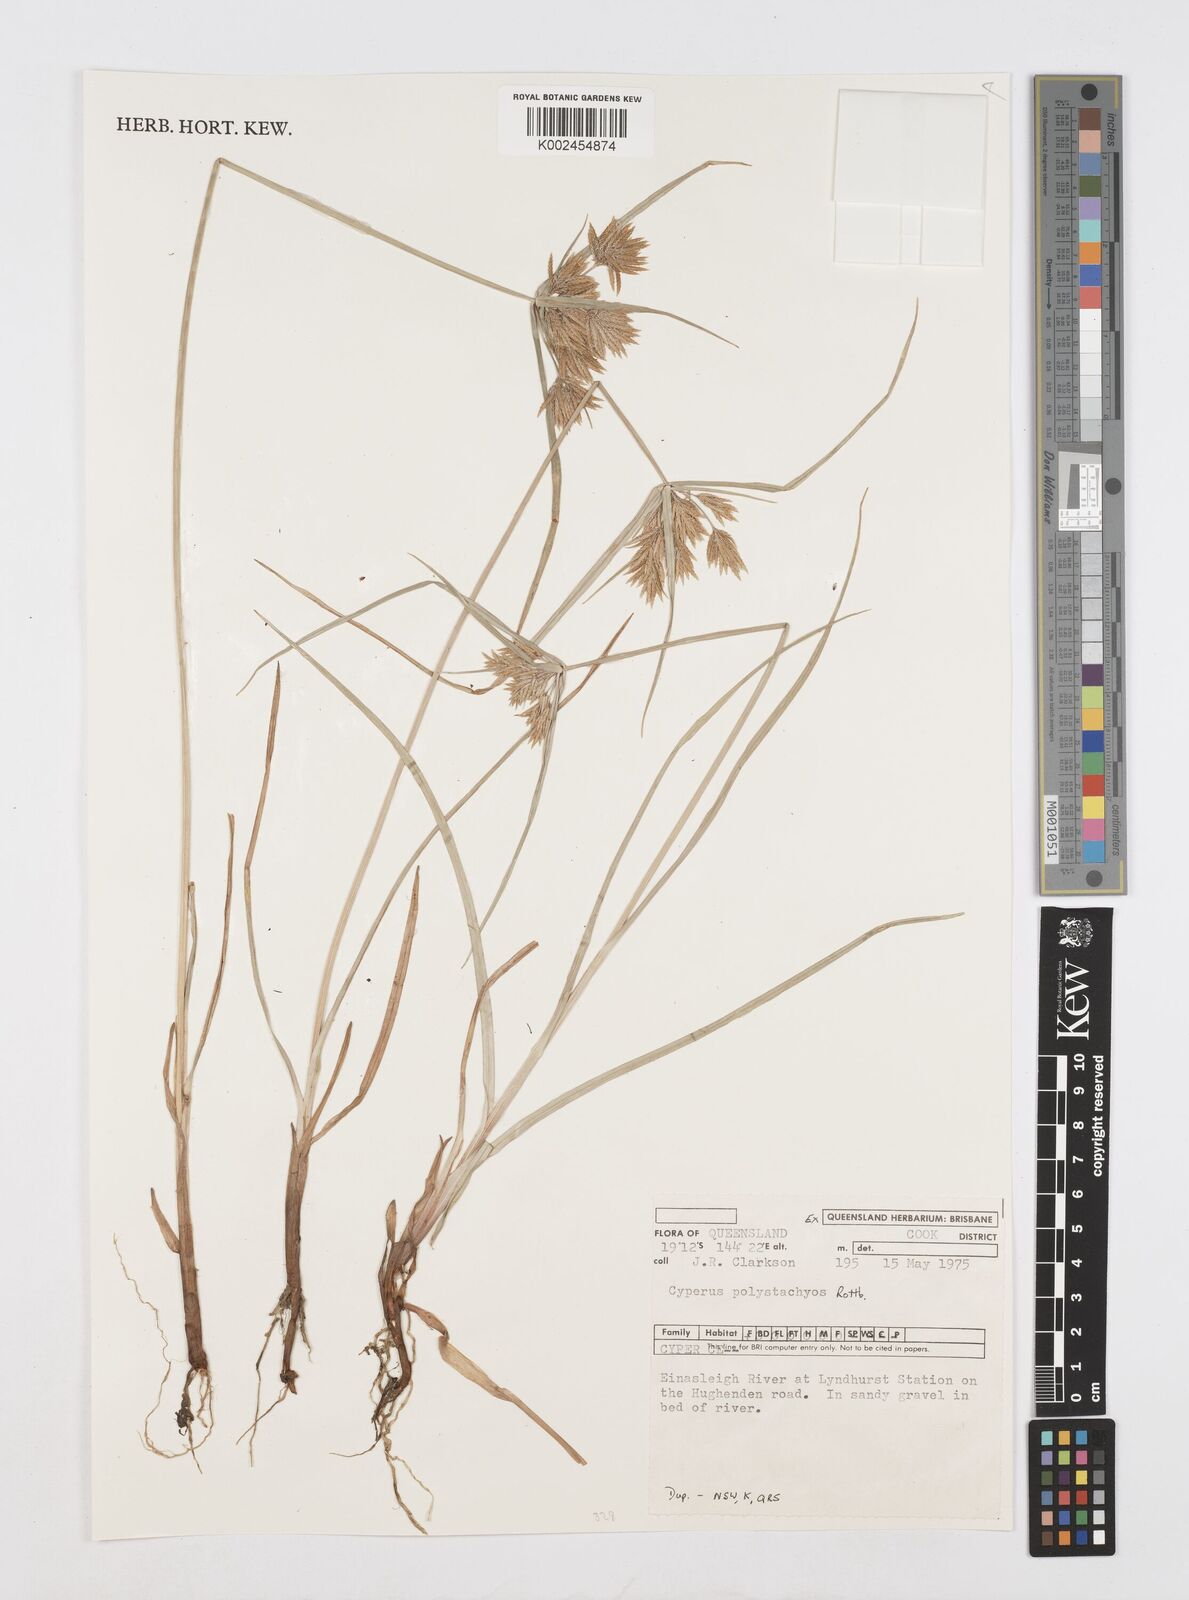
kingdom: Plantae
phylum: Tracheophyta
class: Liliopsida
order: Poales
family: Cyperaceae
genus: Cyperus
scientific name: Cyperus polystachyos
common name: Bunchy flat sedge
